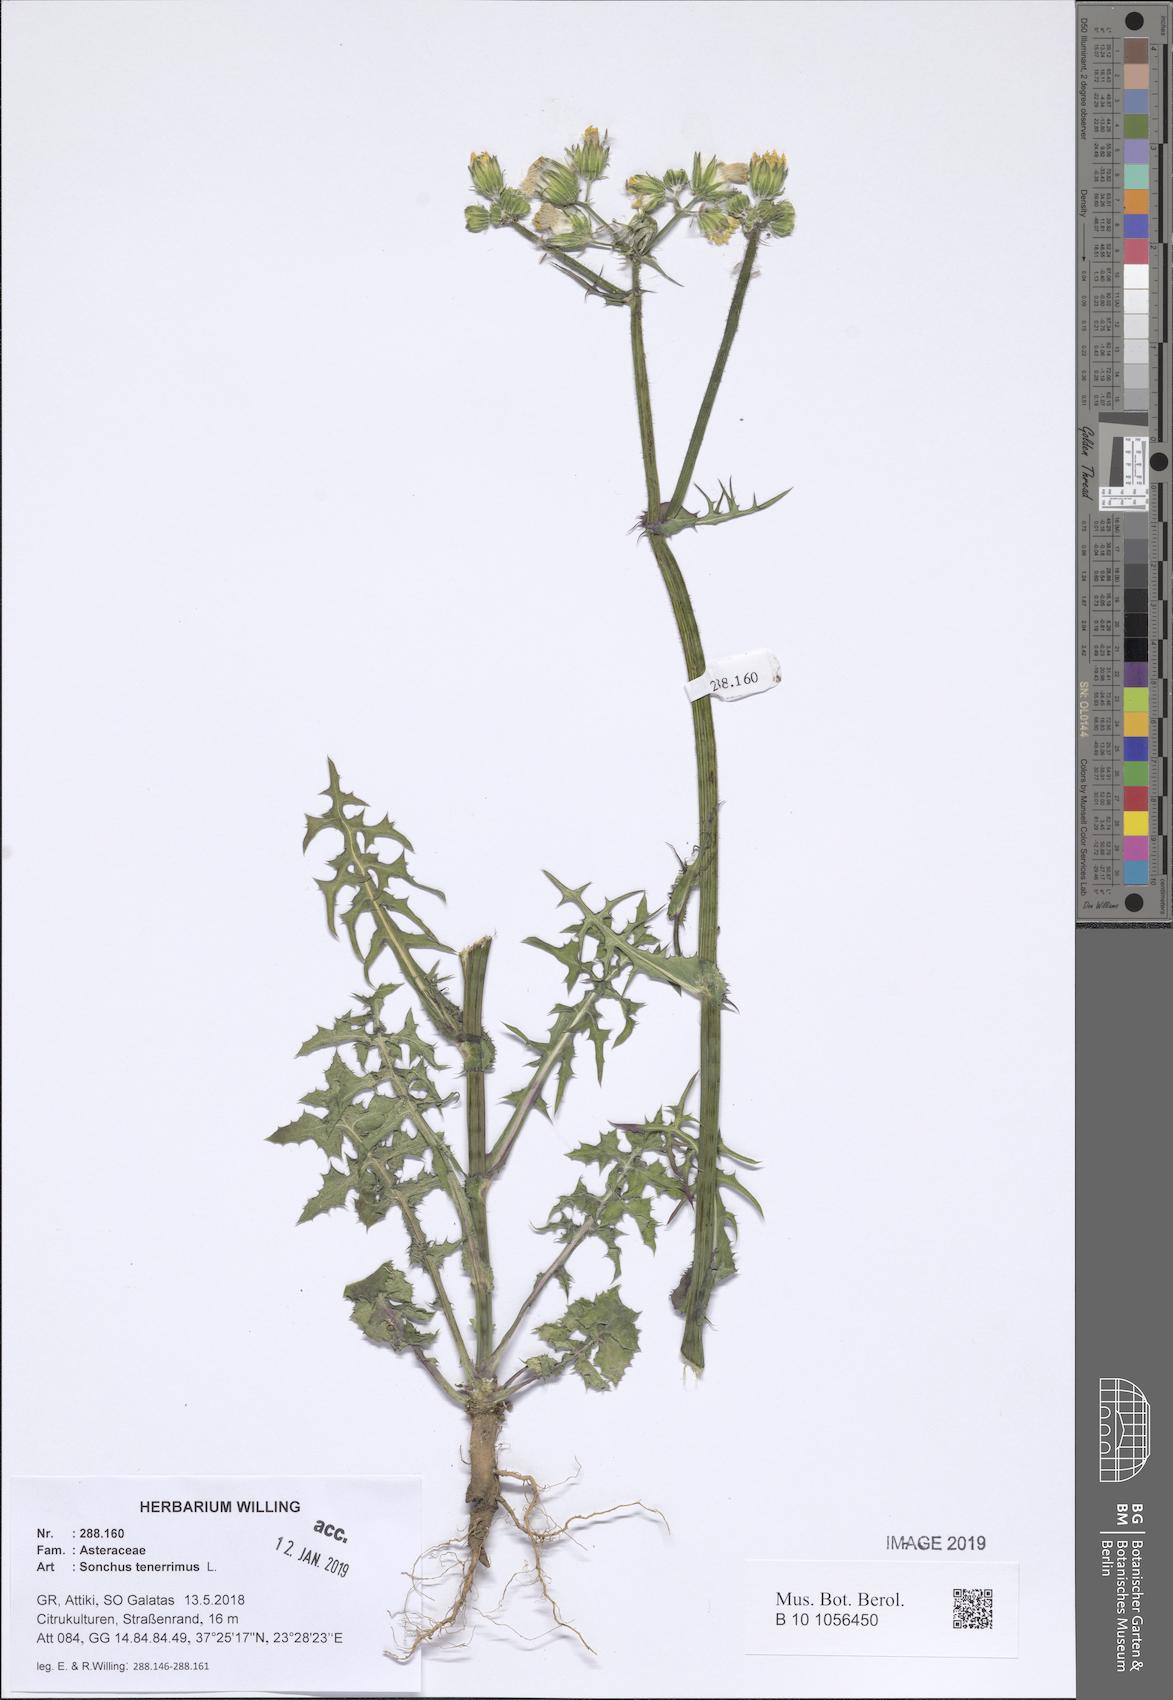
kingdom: Plantae
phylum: Tracheophyta
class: Magnoliopsida
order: Asterales
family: Asteraceae
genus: Sonchus
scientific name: Sonchus tenerrimus
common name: Clammy sowthistle
